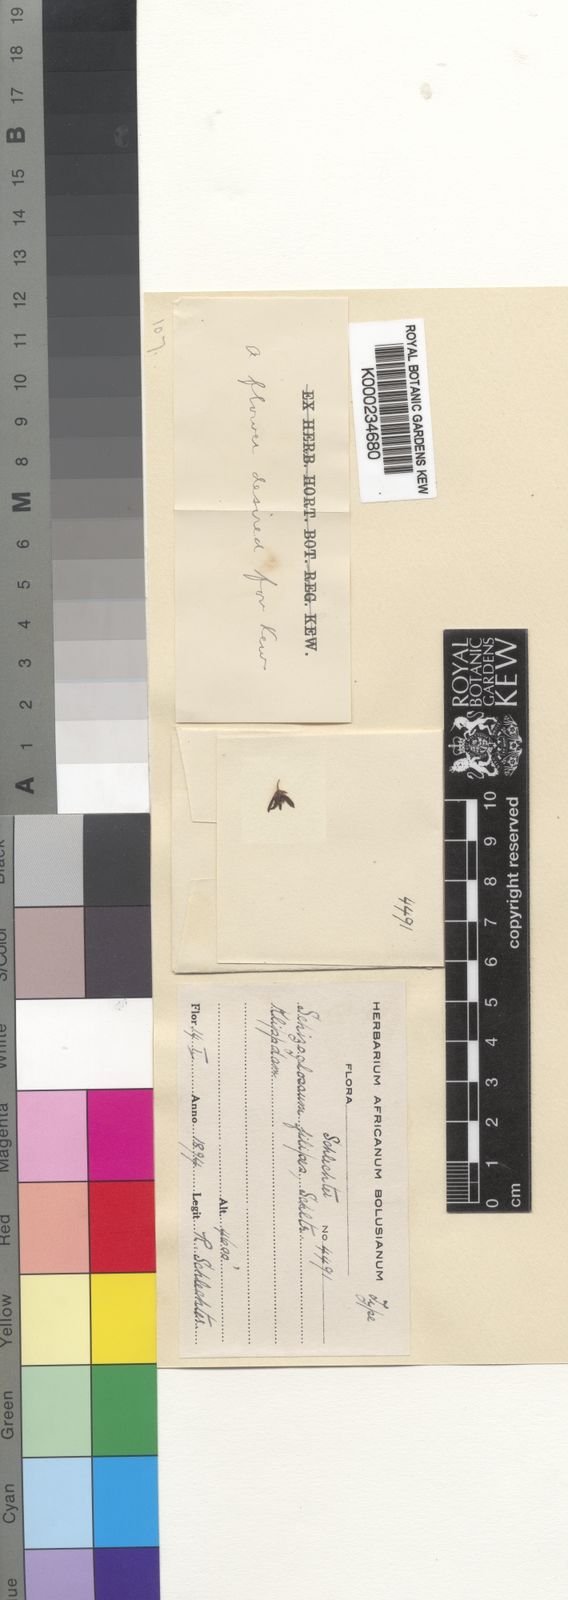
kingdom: Plantae
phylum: Tracheophyta
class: Magnoliopsida
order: Gentianales
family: Apocynaceae
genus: Aspidoglossum
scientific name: Aspidoglossum gracile
